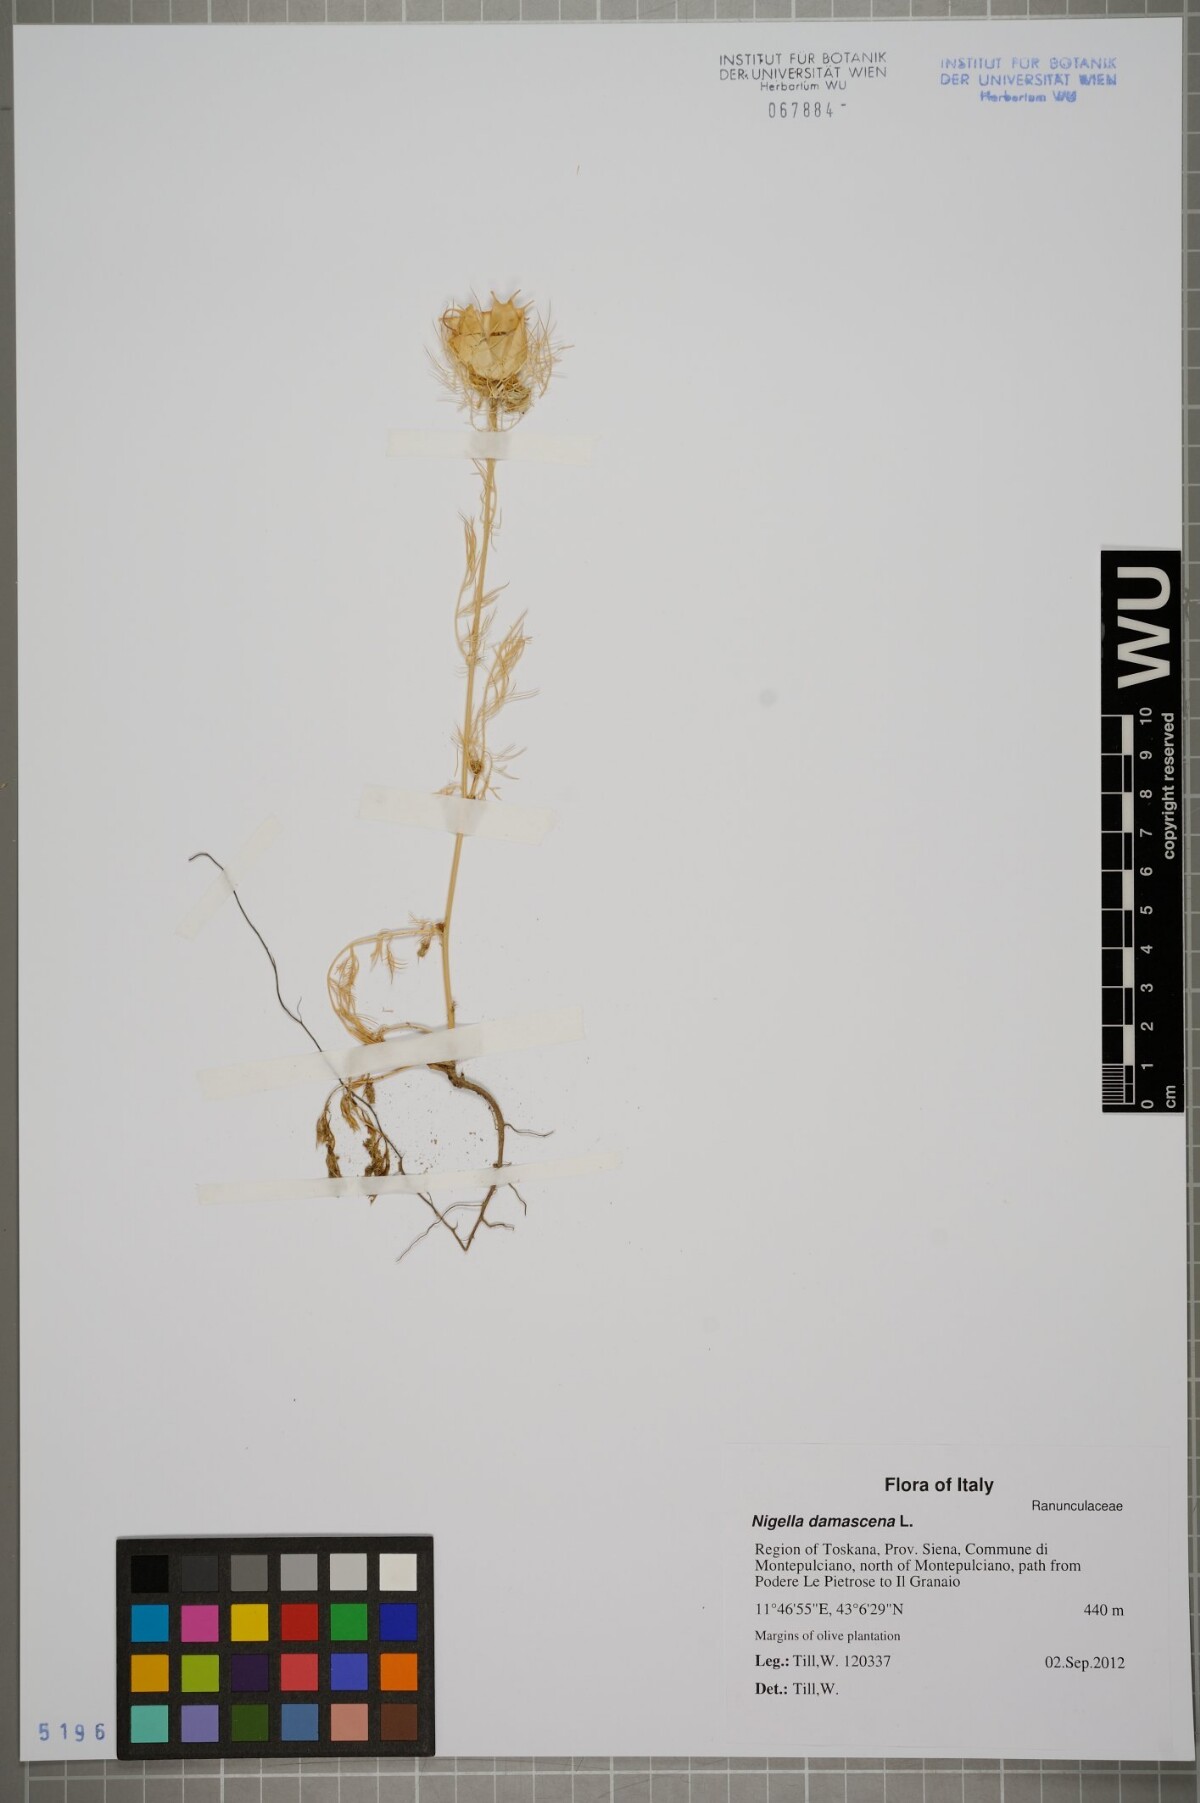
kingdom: Plantae
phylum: Tracheophyta
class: Magnoliopsida
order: Ranunculales
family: Ranunculaceae
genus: Nigella
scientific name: Nigella damascena
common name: Love-in-a-mist
